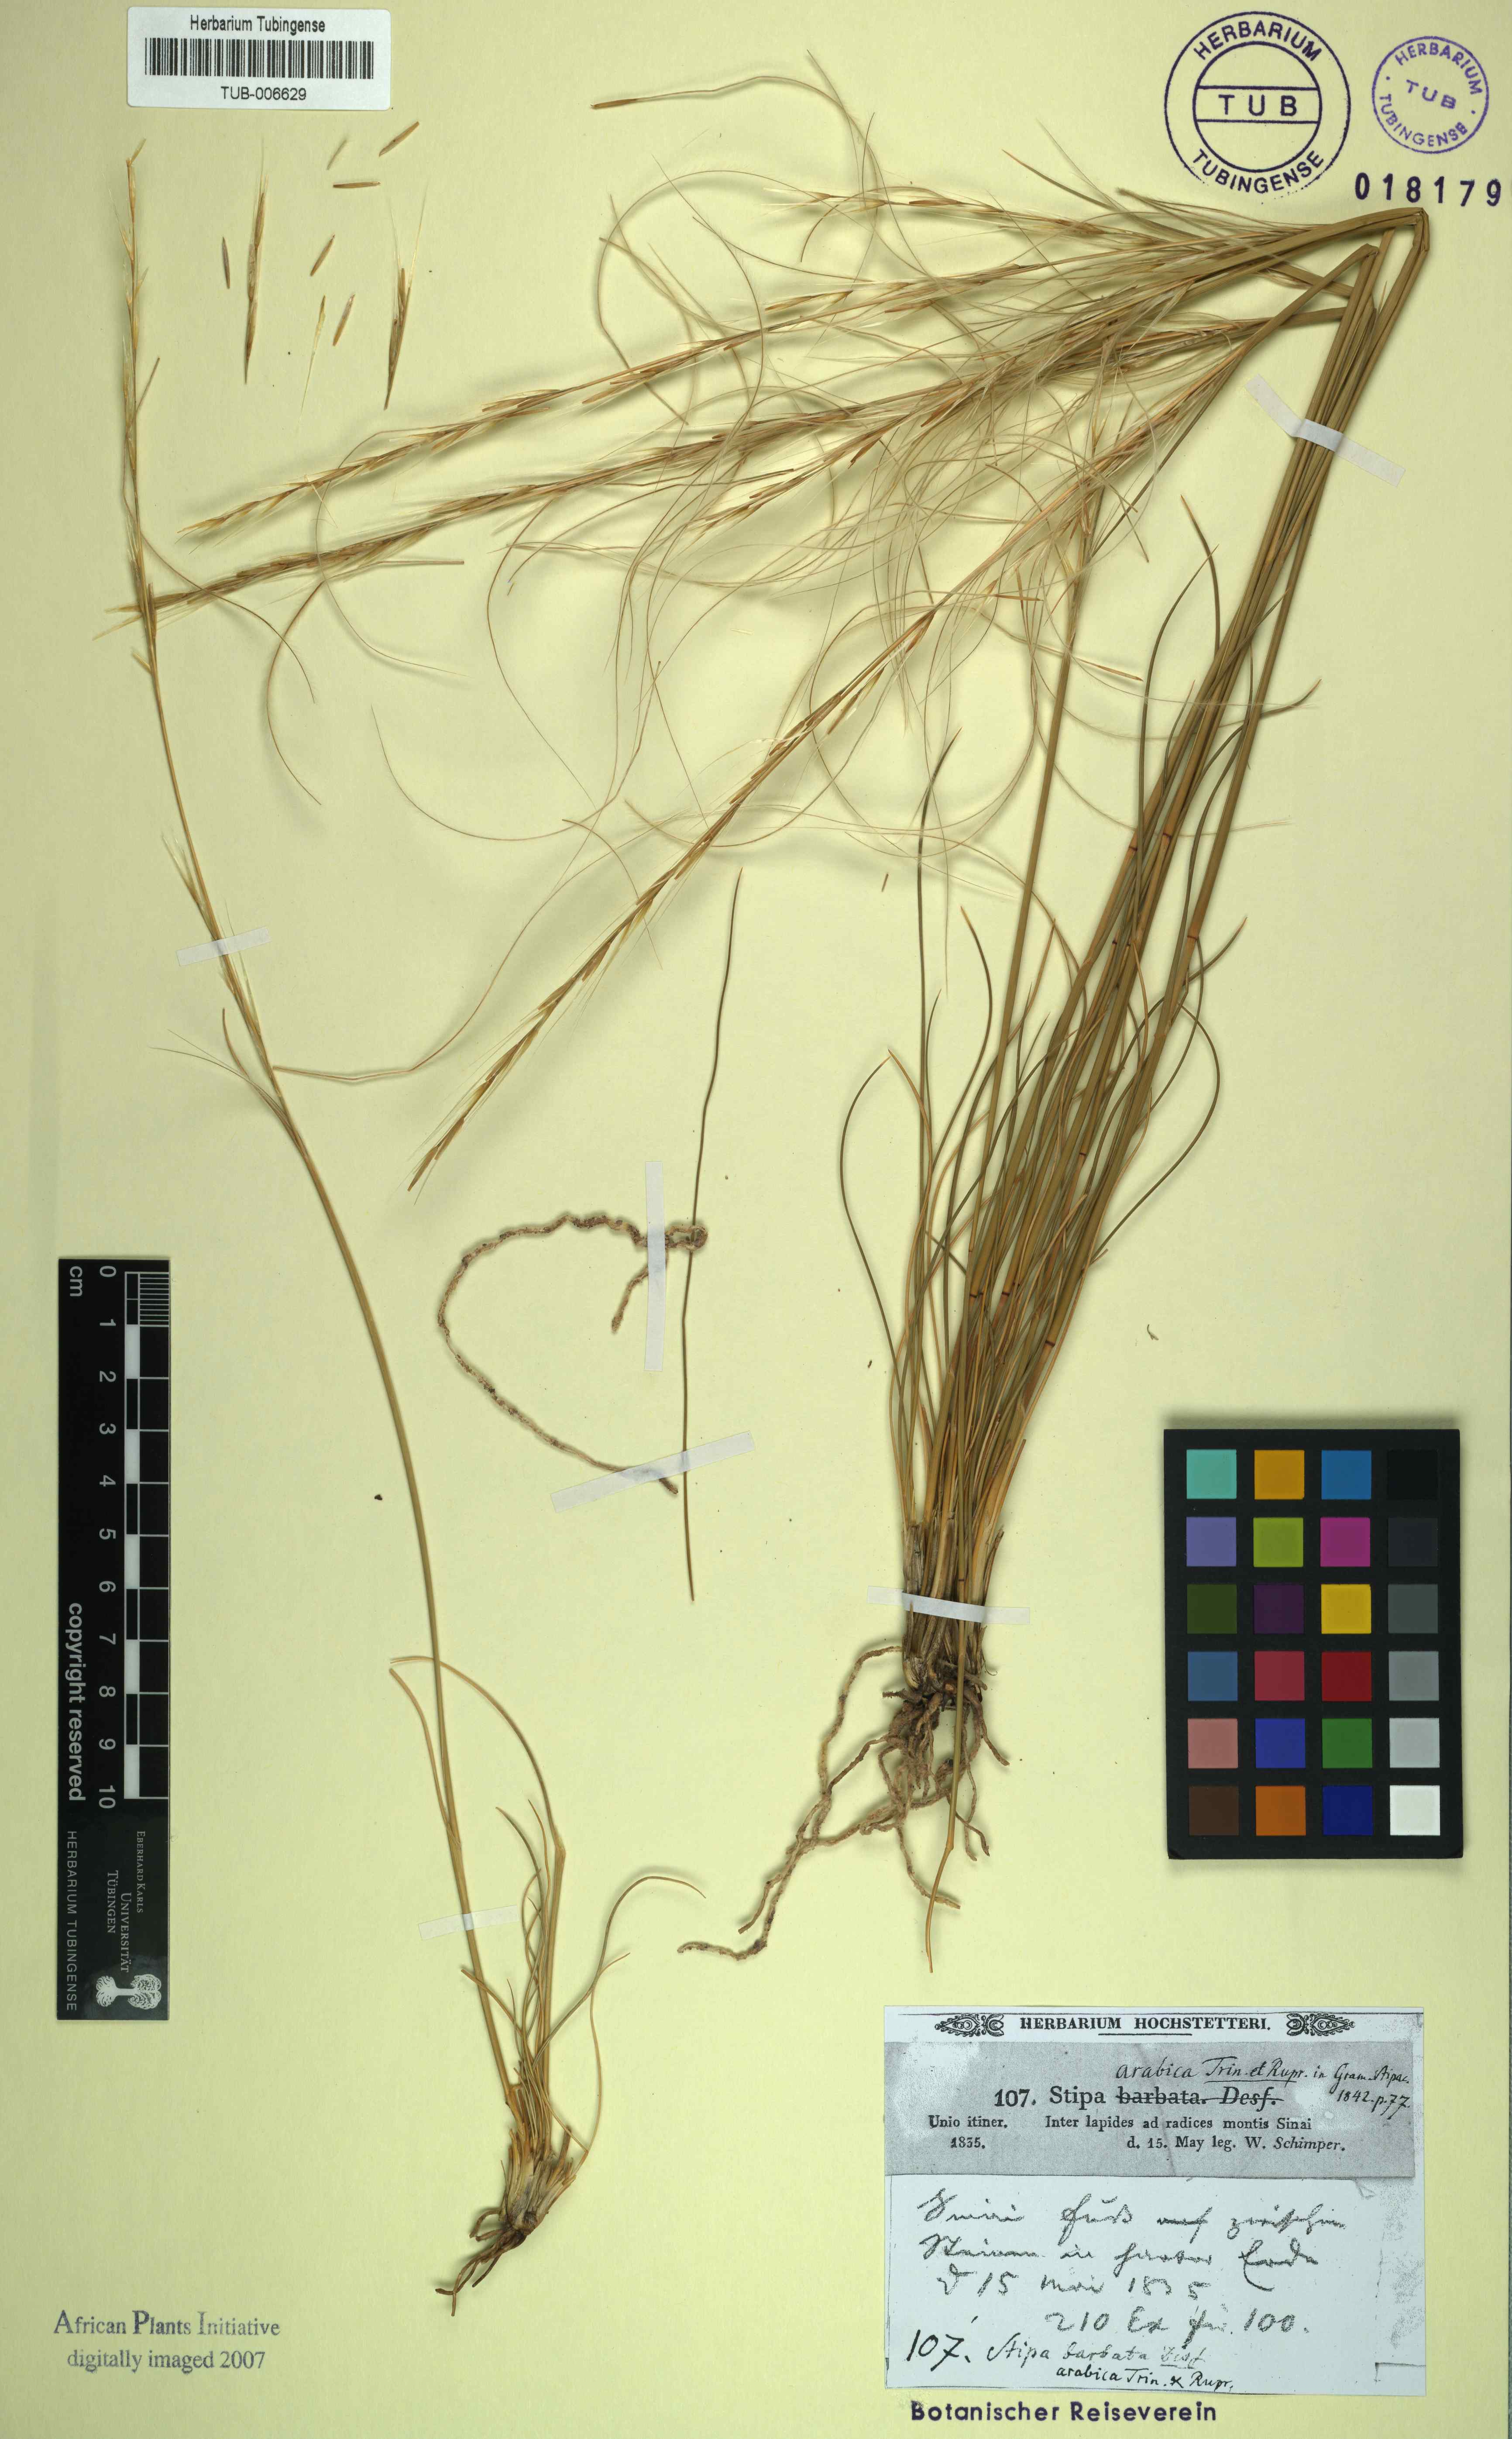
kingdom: Plantae
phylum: Tracheophyta
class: Liliopsida
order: Poales
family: Poaceae
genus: Stipa
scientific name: Stipa arabica
